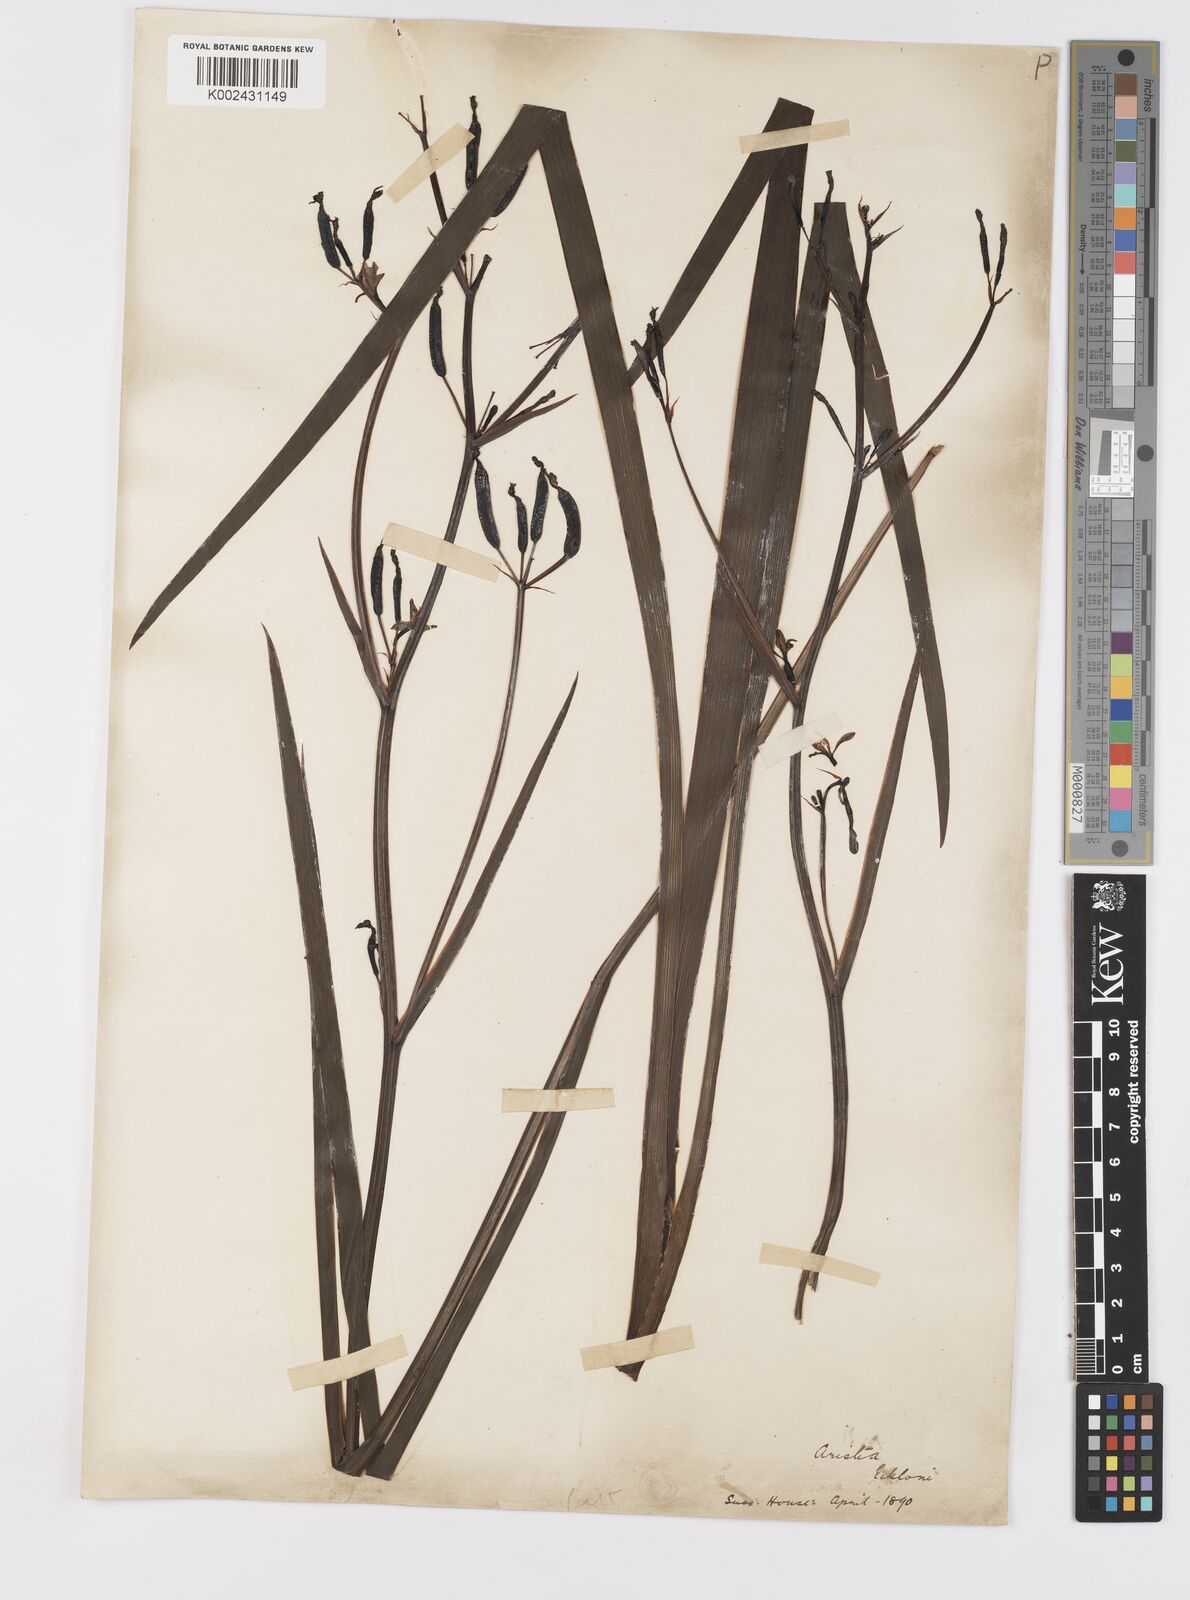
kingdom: Plantae
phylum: Tracheophyta
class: Liliopsida
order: Asparagales
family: Iridaceae
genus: Aristea
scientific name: Aristea ecklonii
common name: Blue corn-lily
